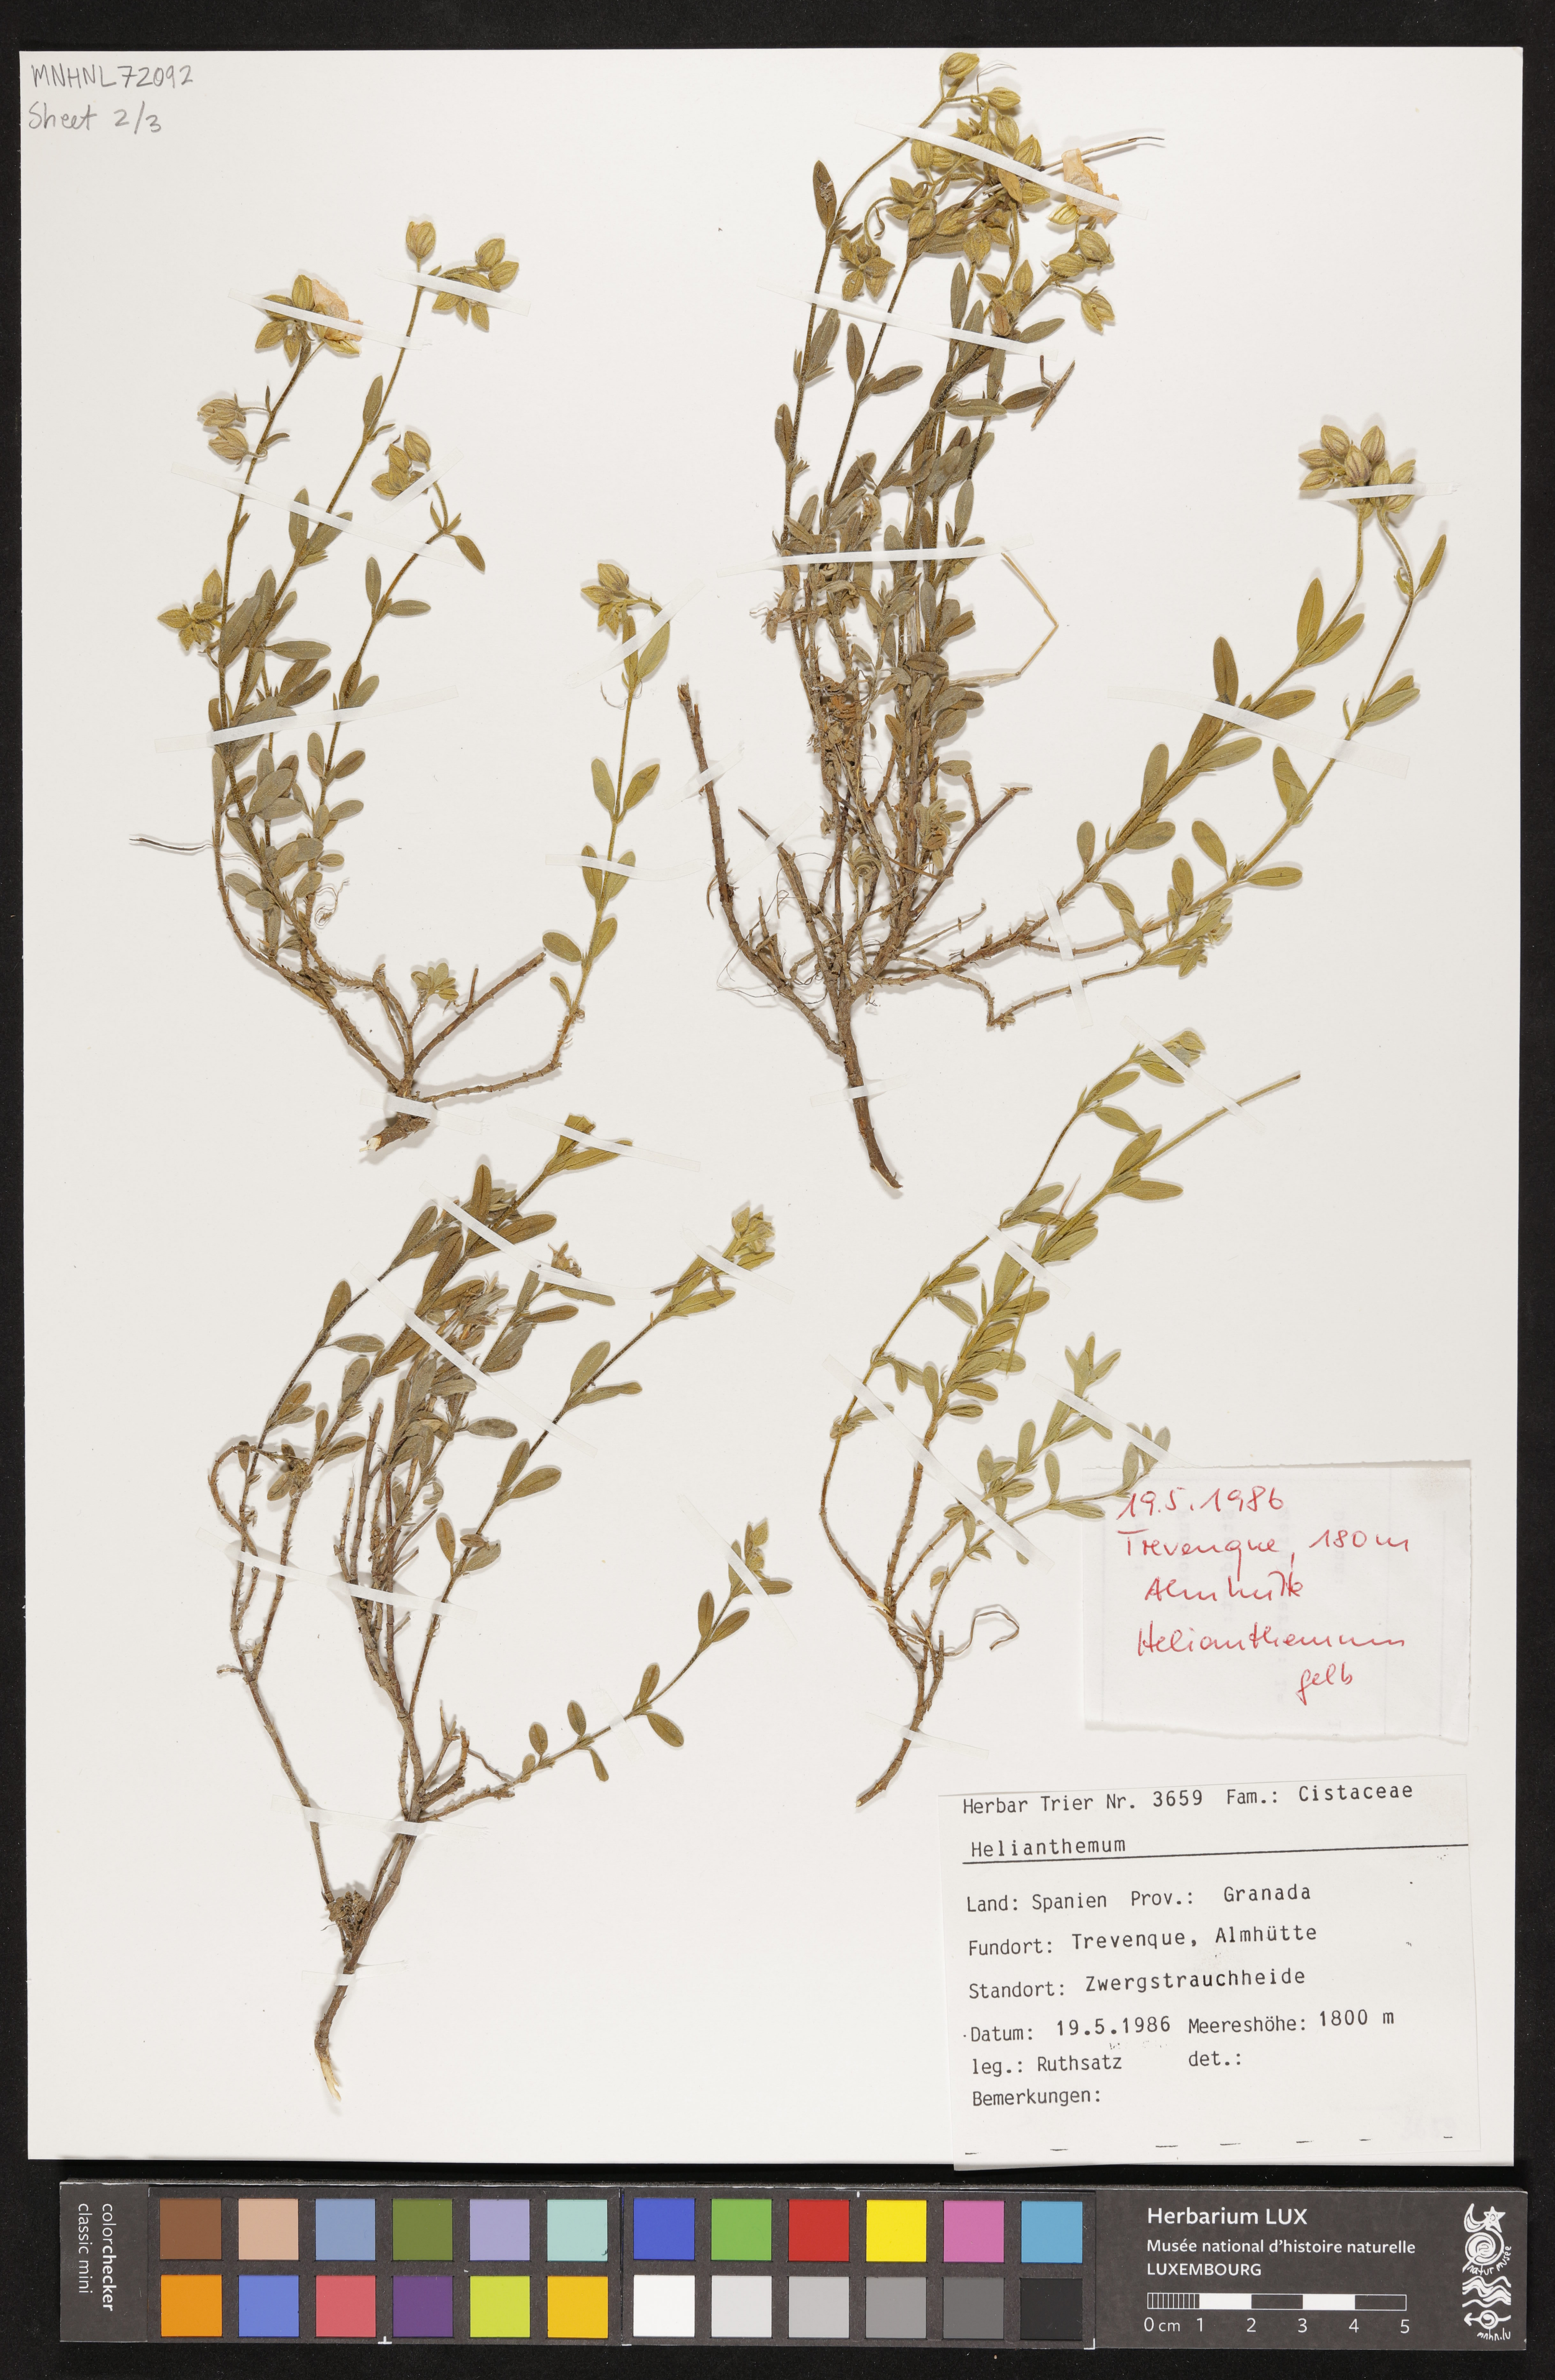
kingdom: Plantae
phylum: Tracheophyta
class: Magnoliopsida
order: Malvales
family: Cistaceae
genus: Helianthemum
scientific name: Helianthemum
